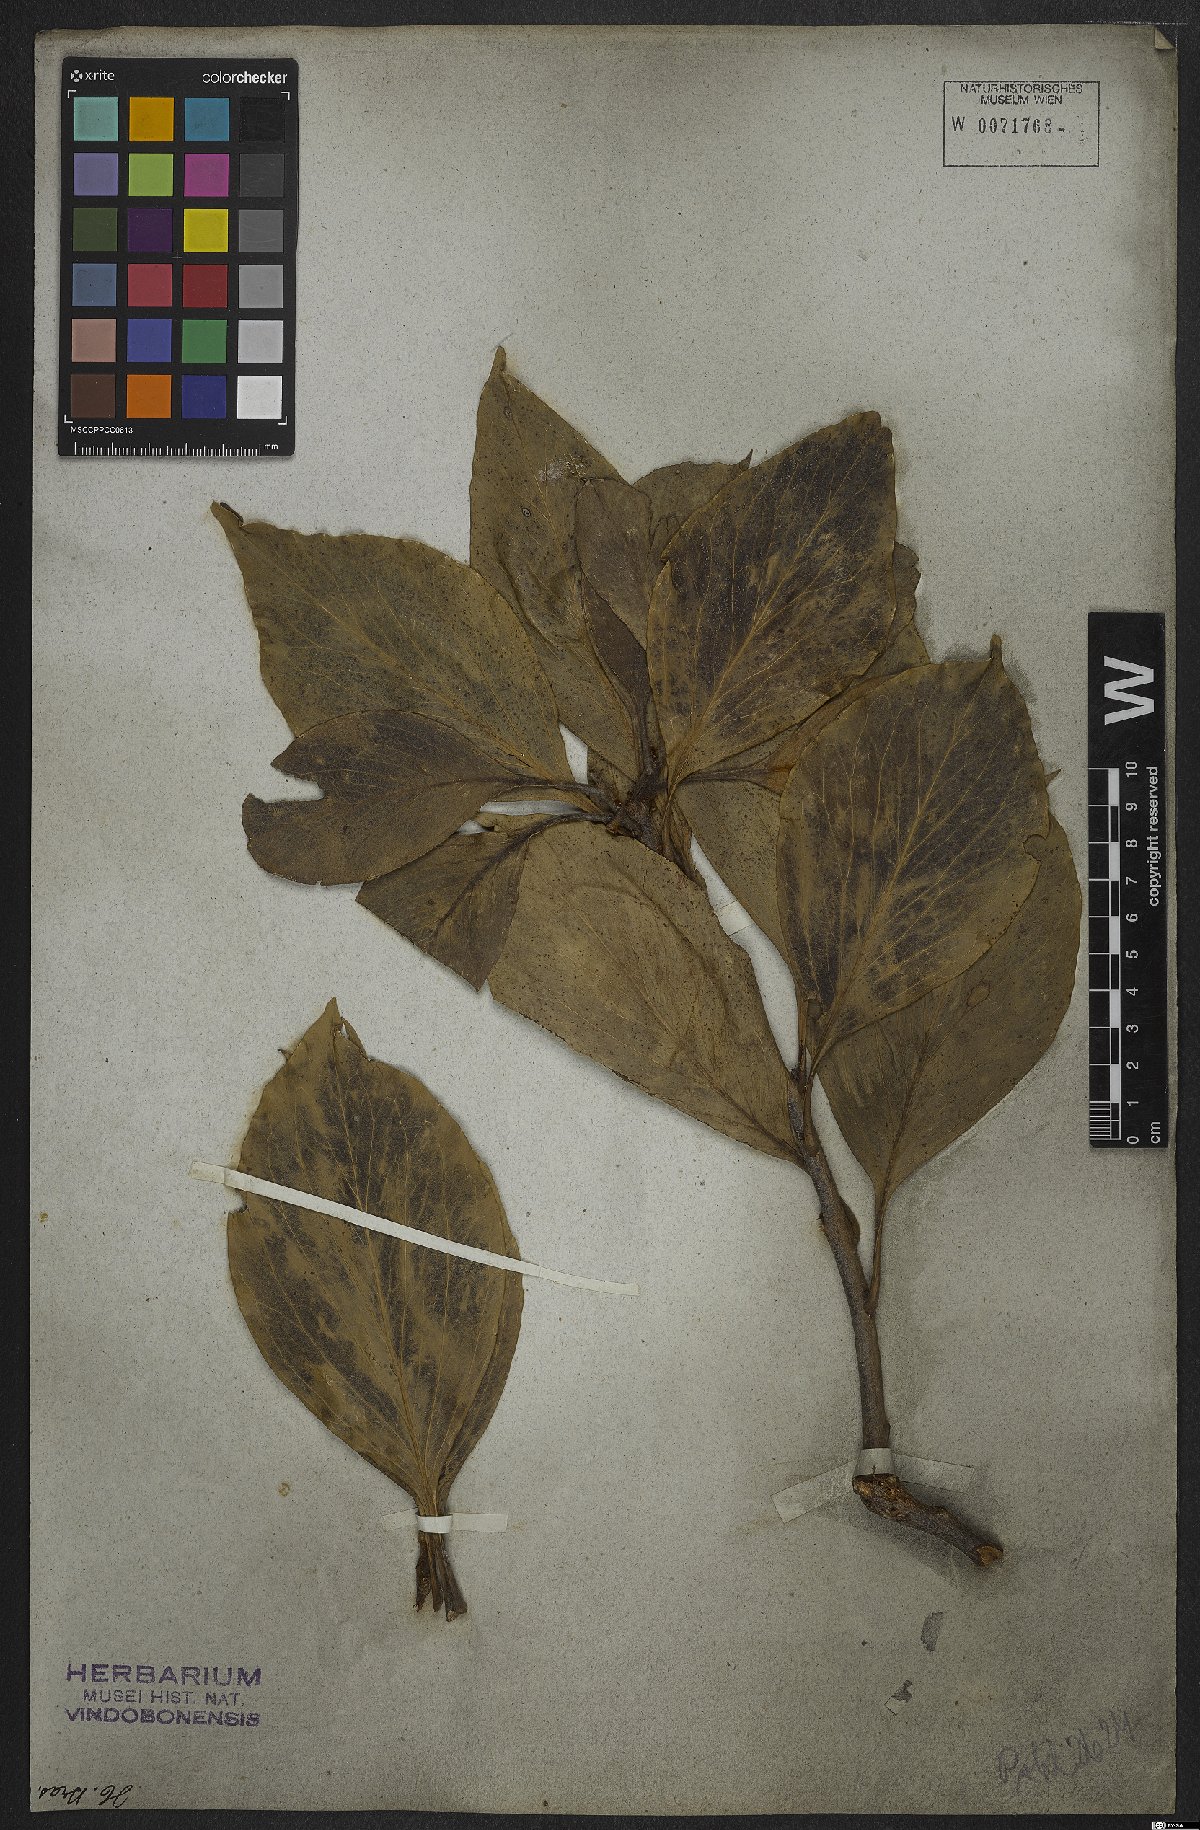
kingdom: Plantae
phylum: Tracheophyta
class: Magnoliopsida
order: Proteales
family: Proteaceae
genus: Roupala
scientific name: Roupala montana
